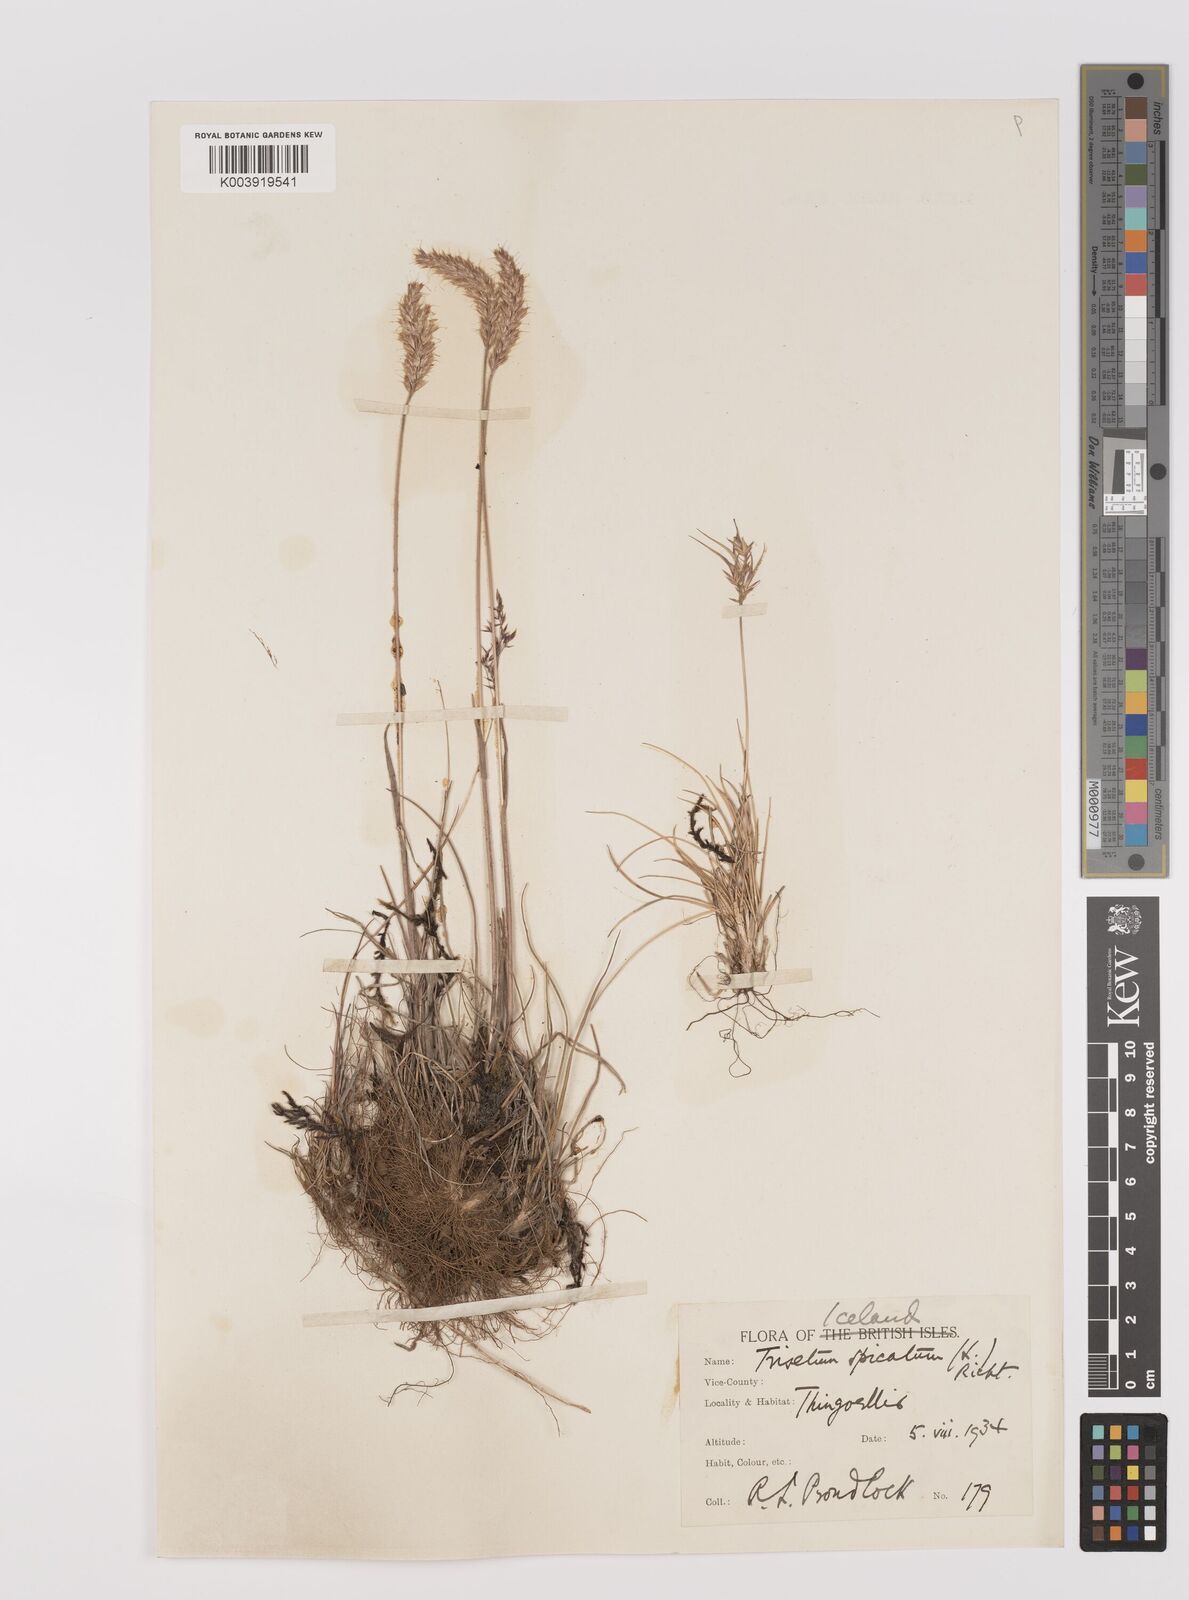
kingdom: Plantae
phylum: Tracheophyta
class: Liliopsida
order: Poales
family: Poaceae
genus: Koeleria
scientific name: Koeleria spicata
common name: Mountain trisetum
